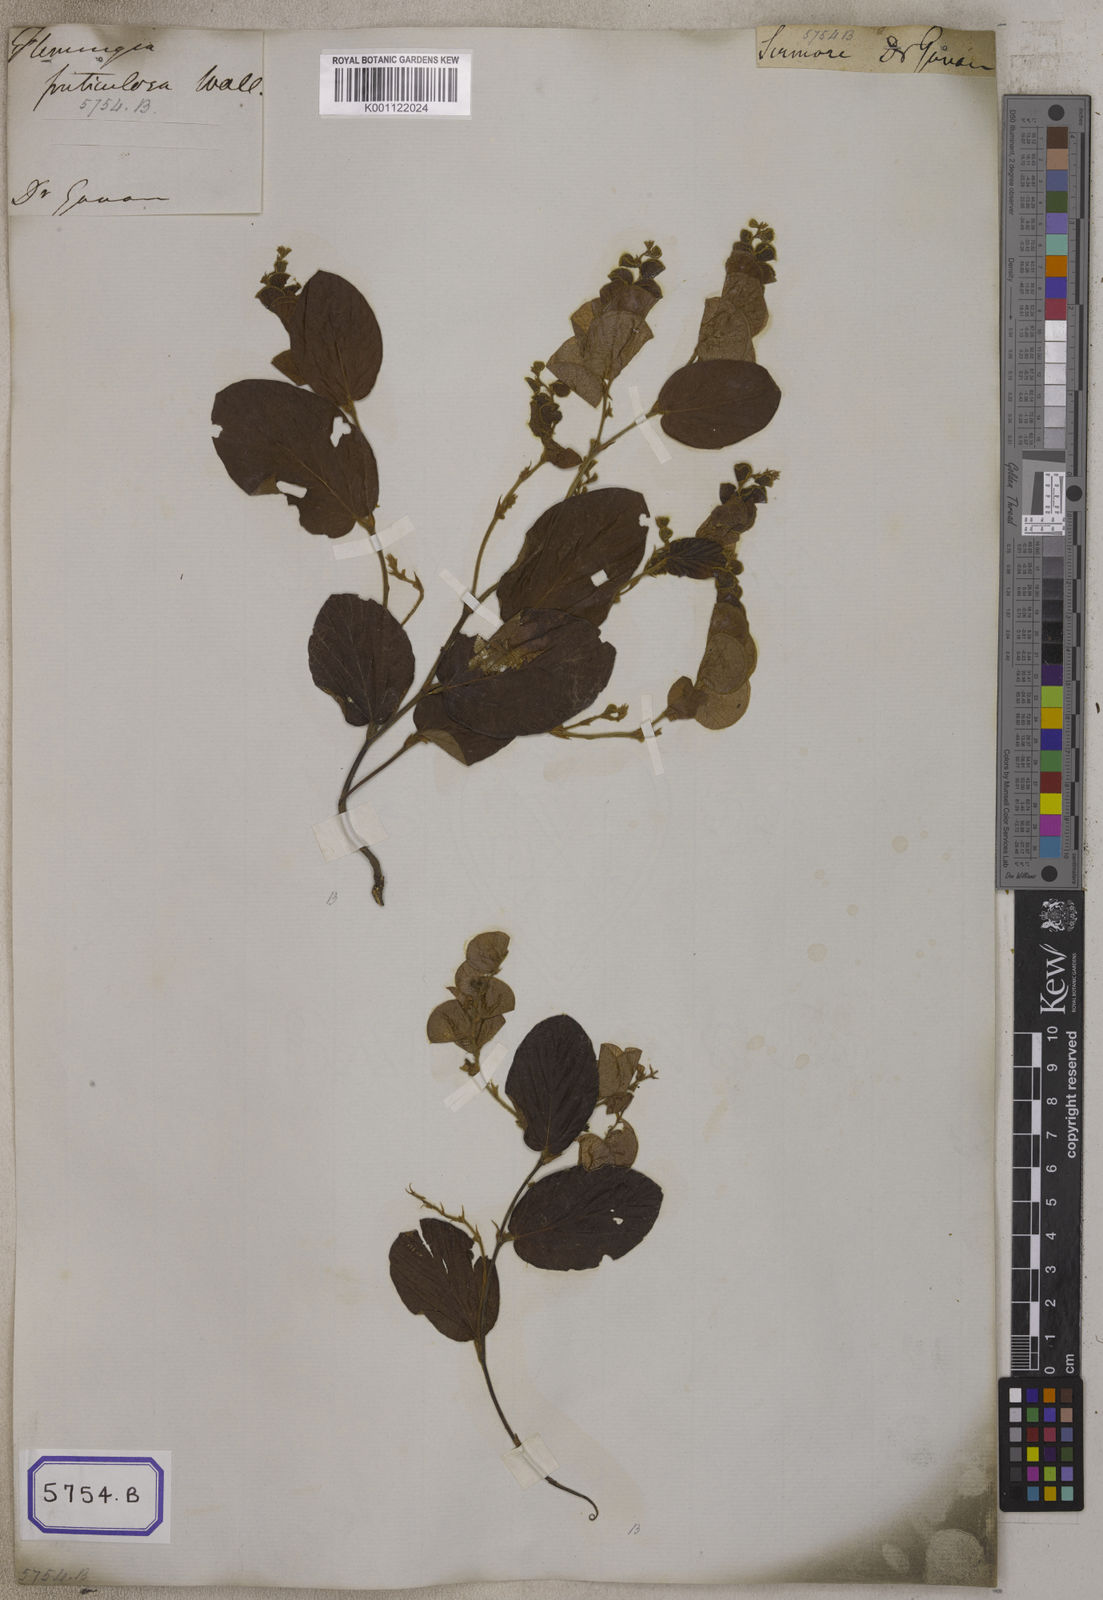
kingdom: Plantae
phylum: Tracheophyta
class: Magnoliopsida
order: Fabales
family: Fabaceae
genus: Flemingia
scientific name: Flemingia
